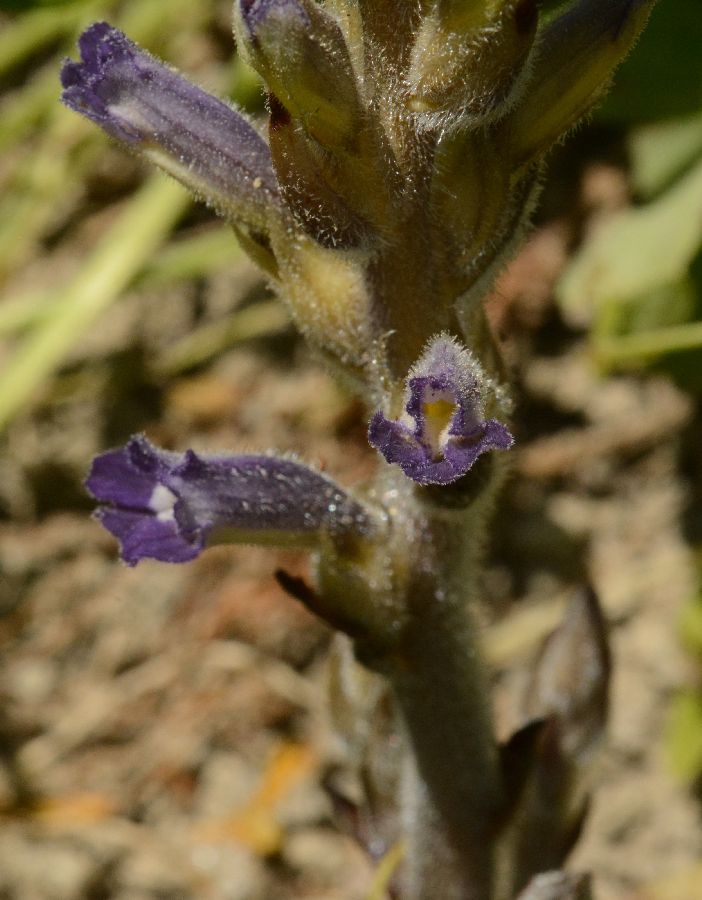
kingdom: Plantae
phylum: Tracheophyta
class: Magnoliopsida
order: Lamiales
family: Orobanchaceae
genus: Phelipanche
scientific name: Phelipanche ramosa
